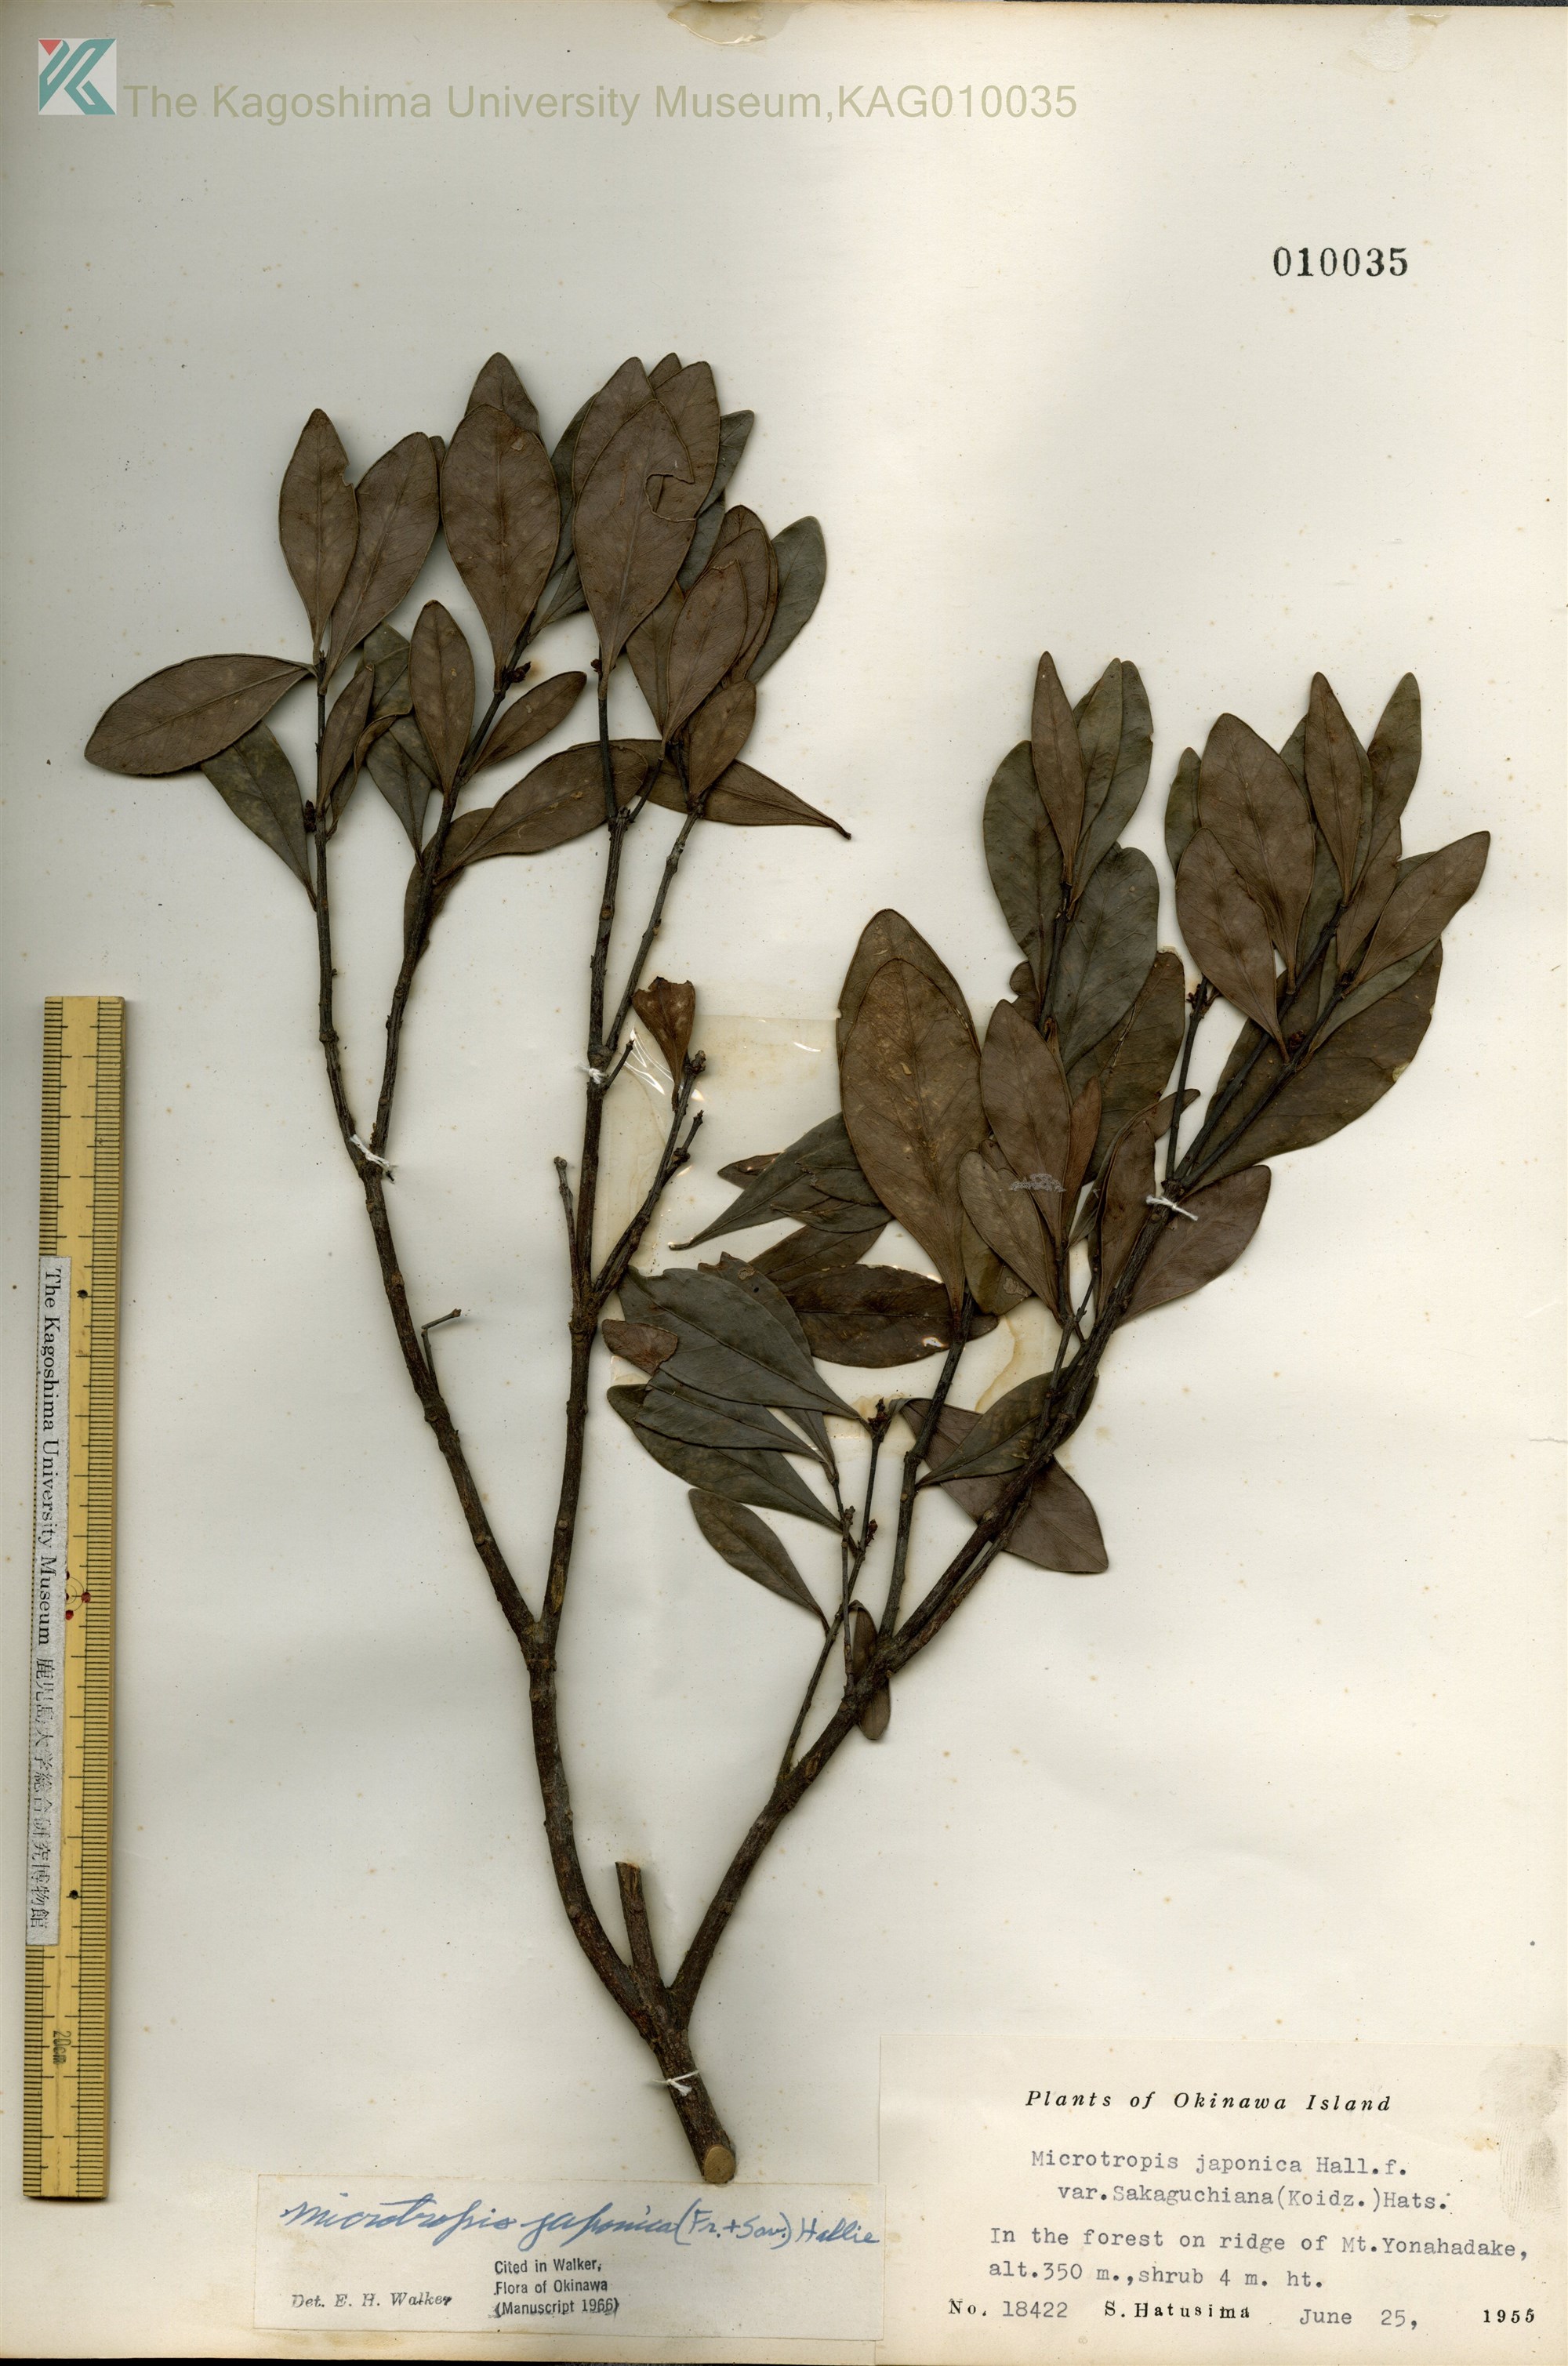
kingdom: Plantae
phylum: Tracheophyta
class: Magnoliopsida
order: Celastrales
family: Celastraceae
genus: Microtropis
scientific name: Microtropis japonica
